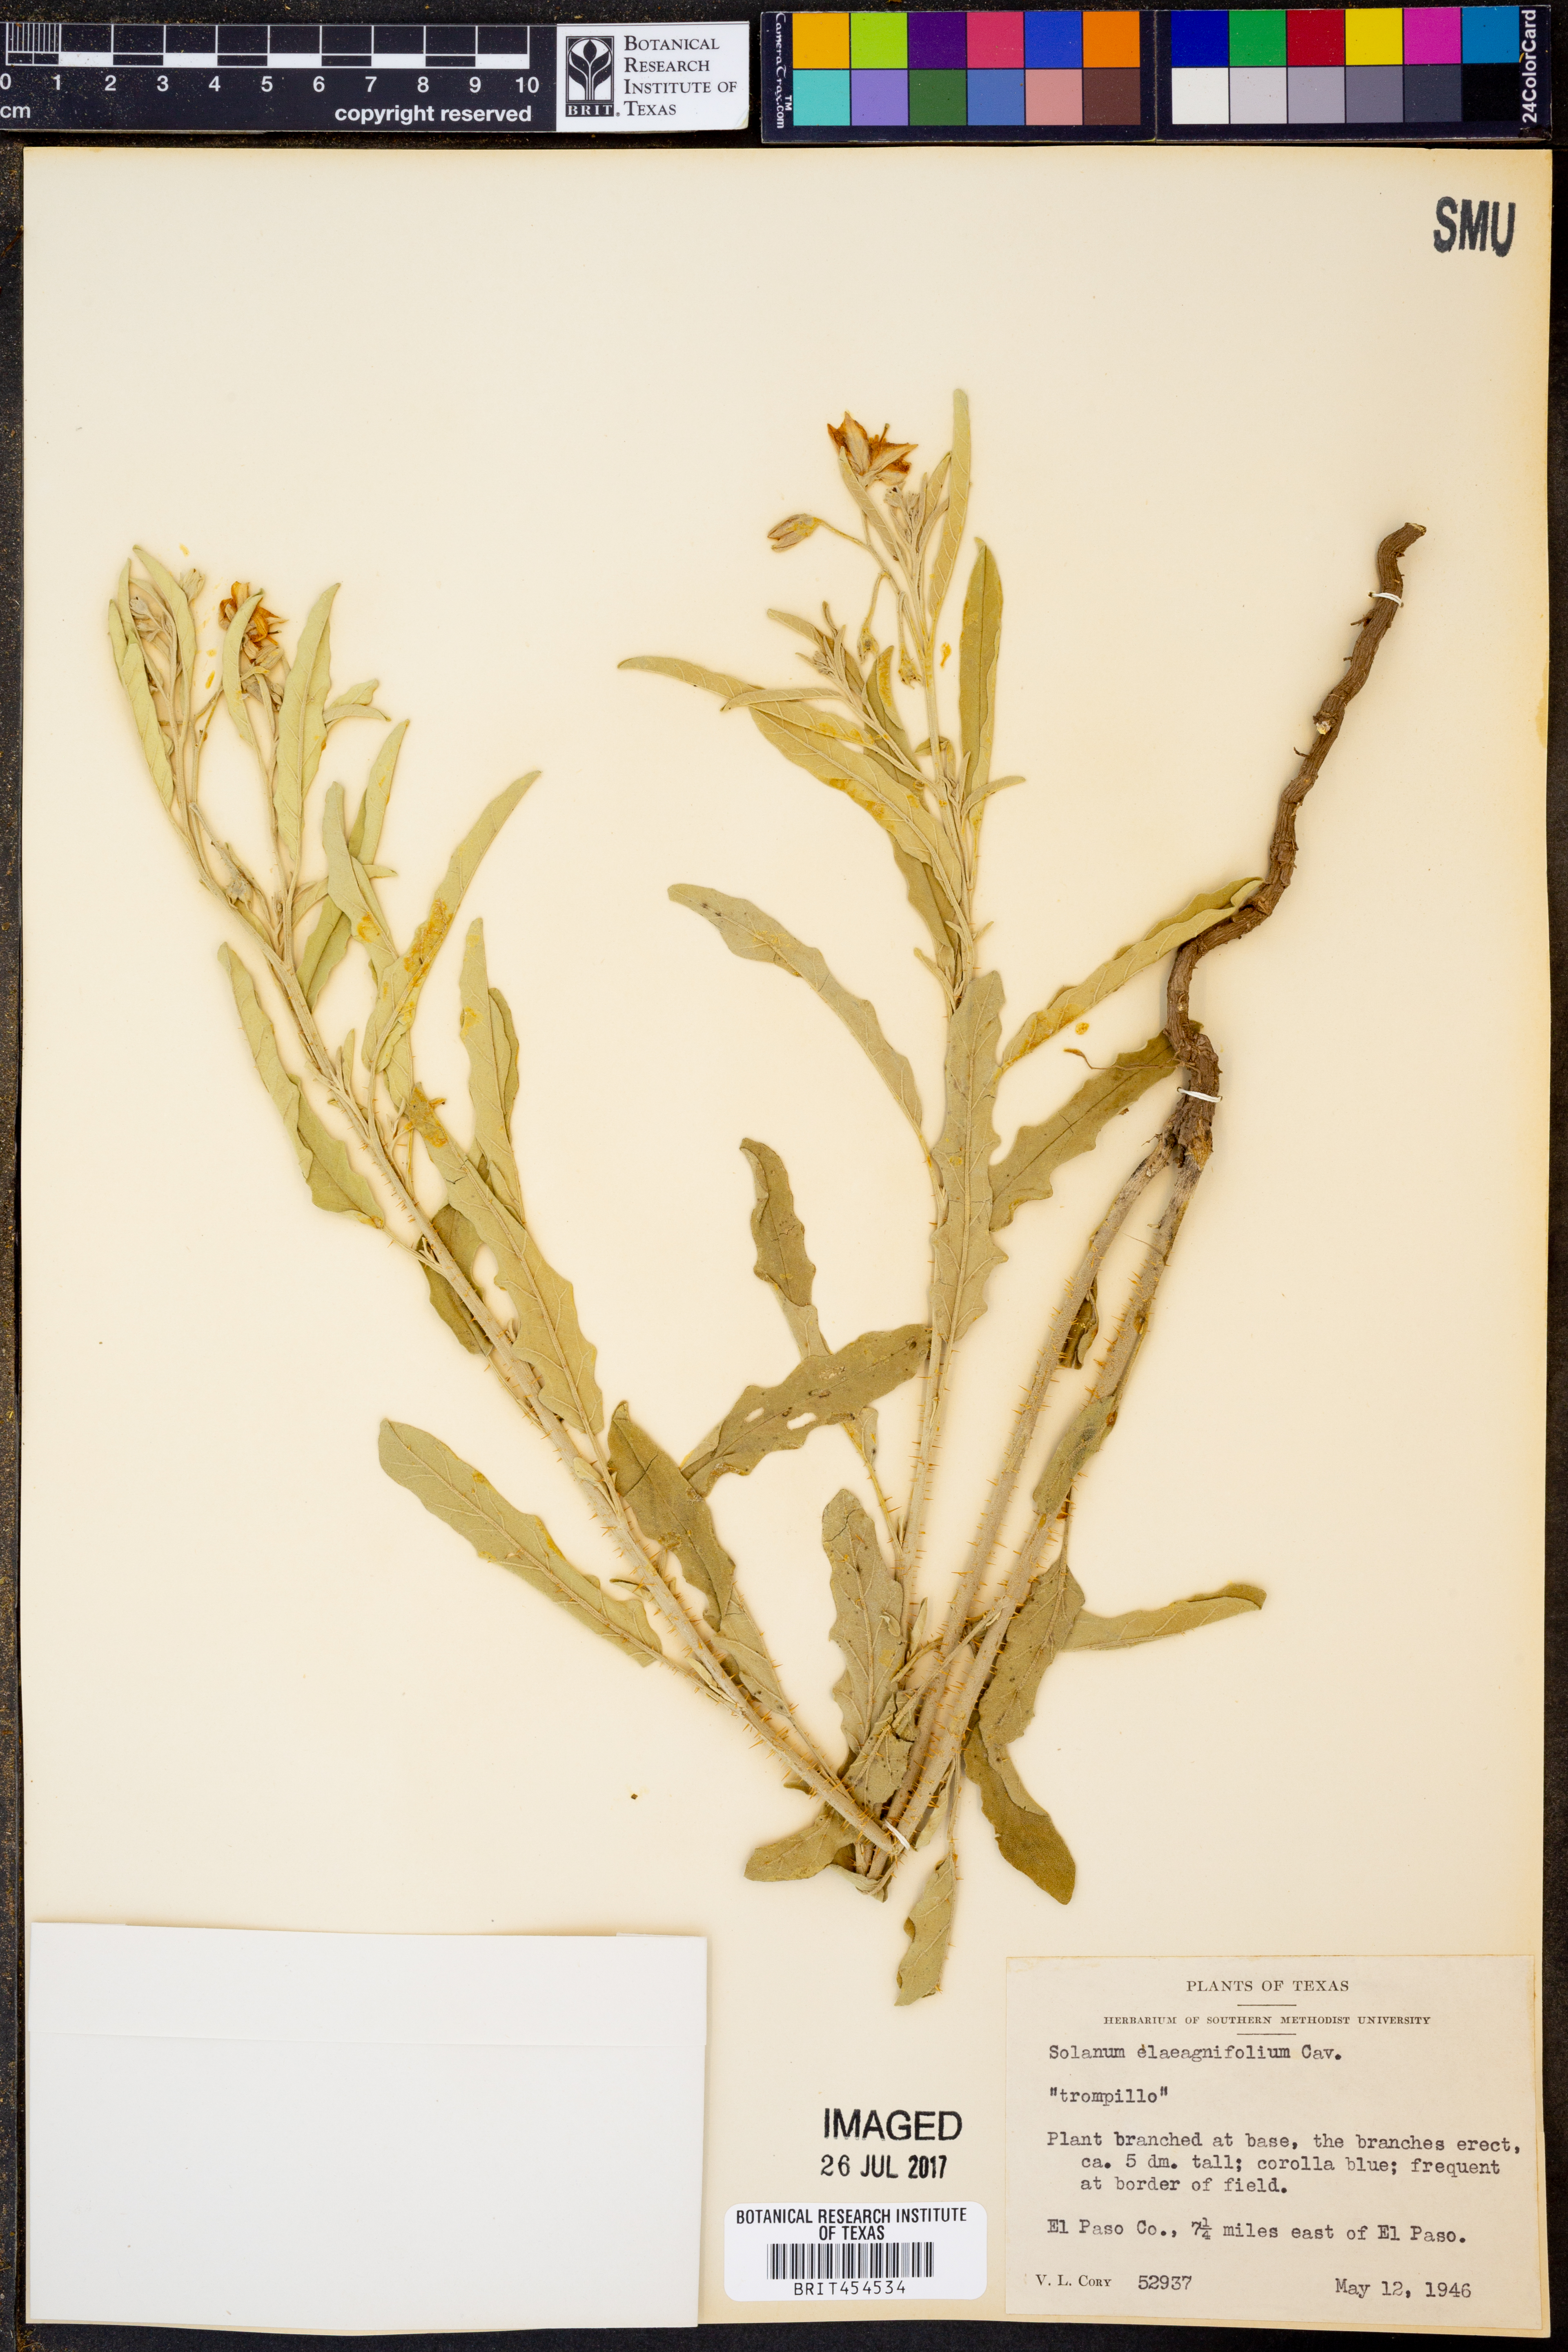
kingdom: Plantae
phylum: Tracheophyta
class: Magnoliopsida
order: Solanales
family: Solanaceae
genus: Solanum
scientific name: Solanum elaeagnifolium
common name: Silverleaf nightshade
